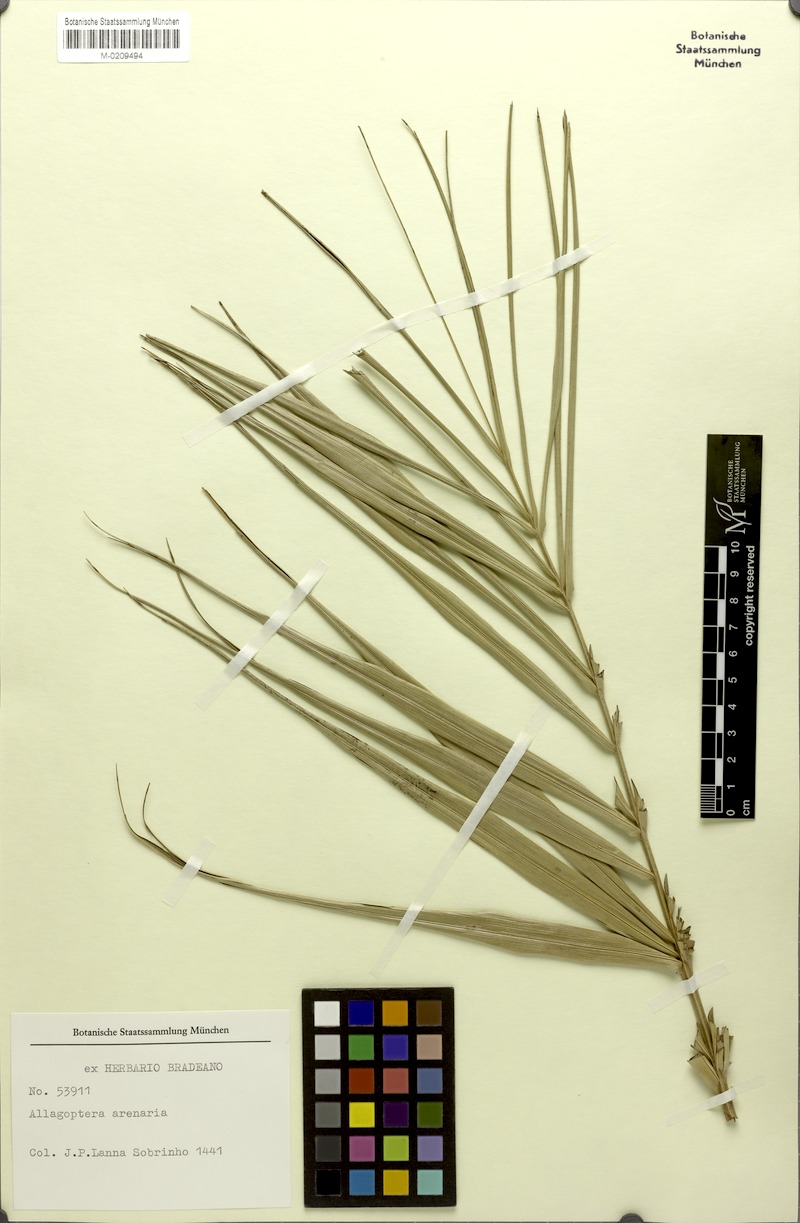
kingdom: Plantae
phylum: Tracheophyta
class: Liliopsida
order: Arecales
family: Arecaceae
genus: Allagoptera
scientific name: Allagoptera arenaria
